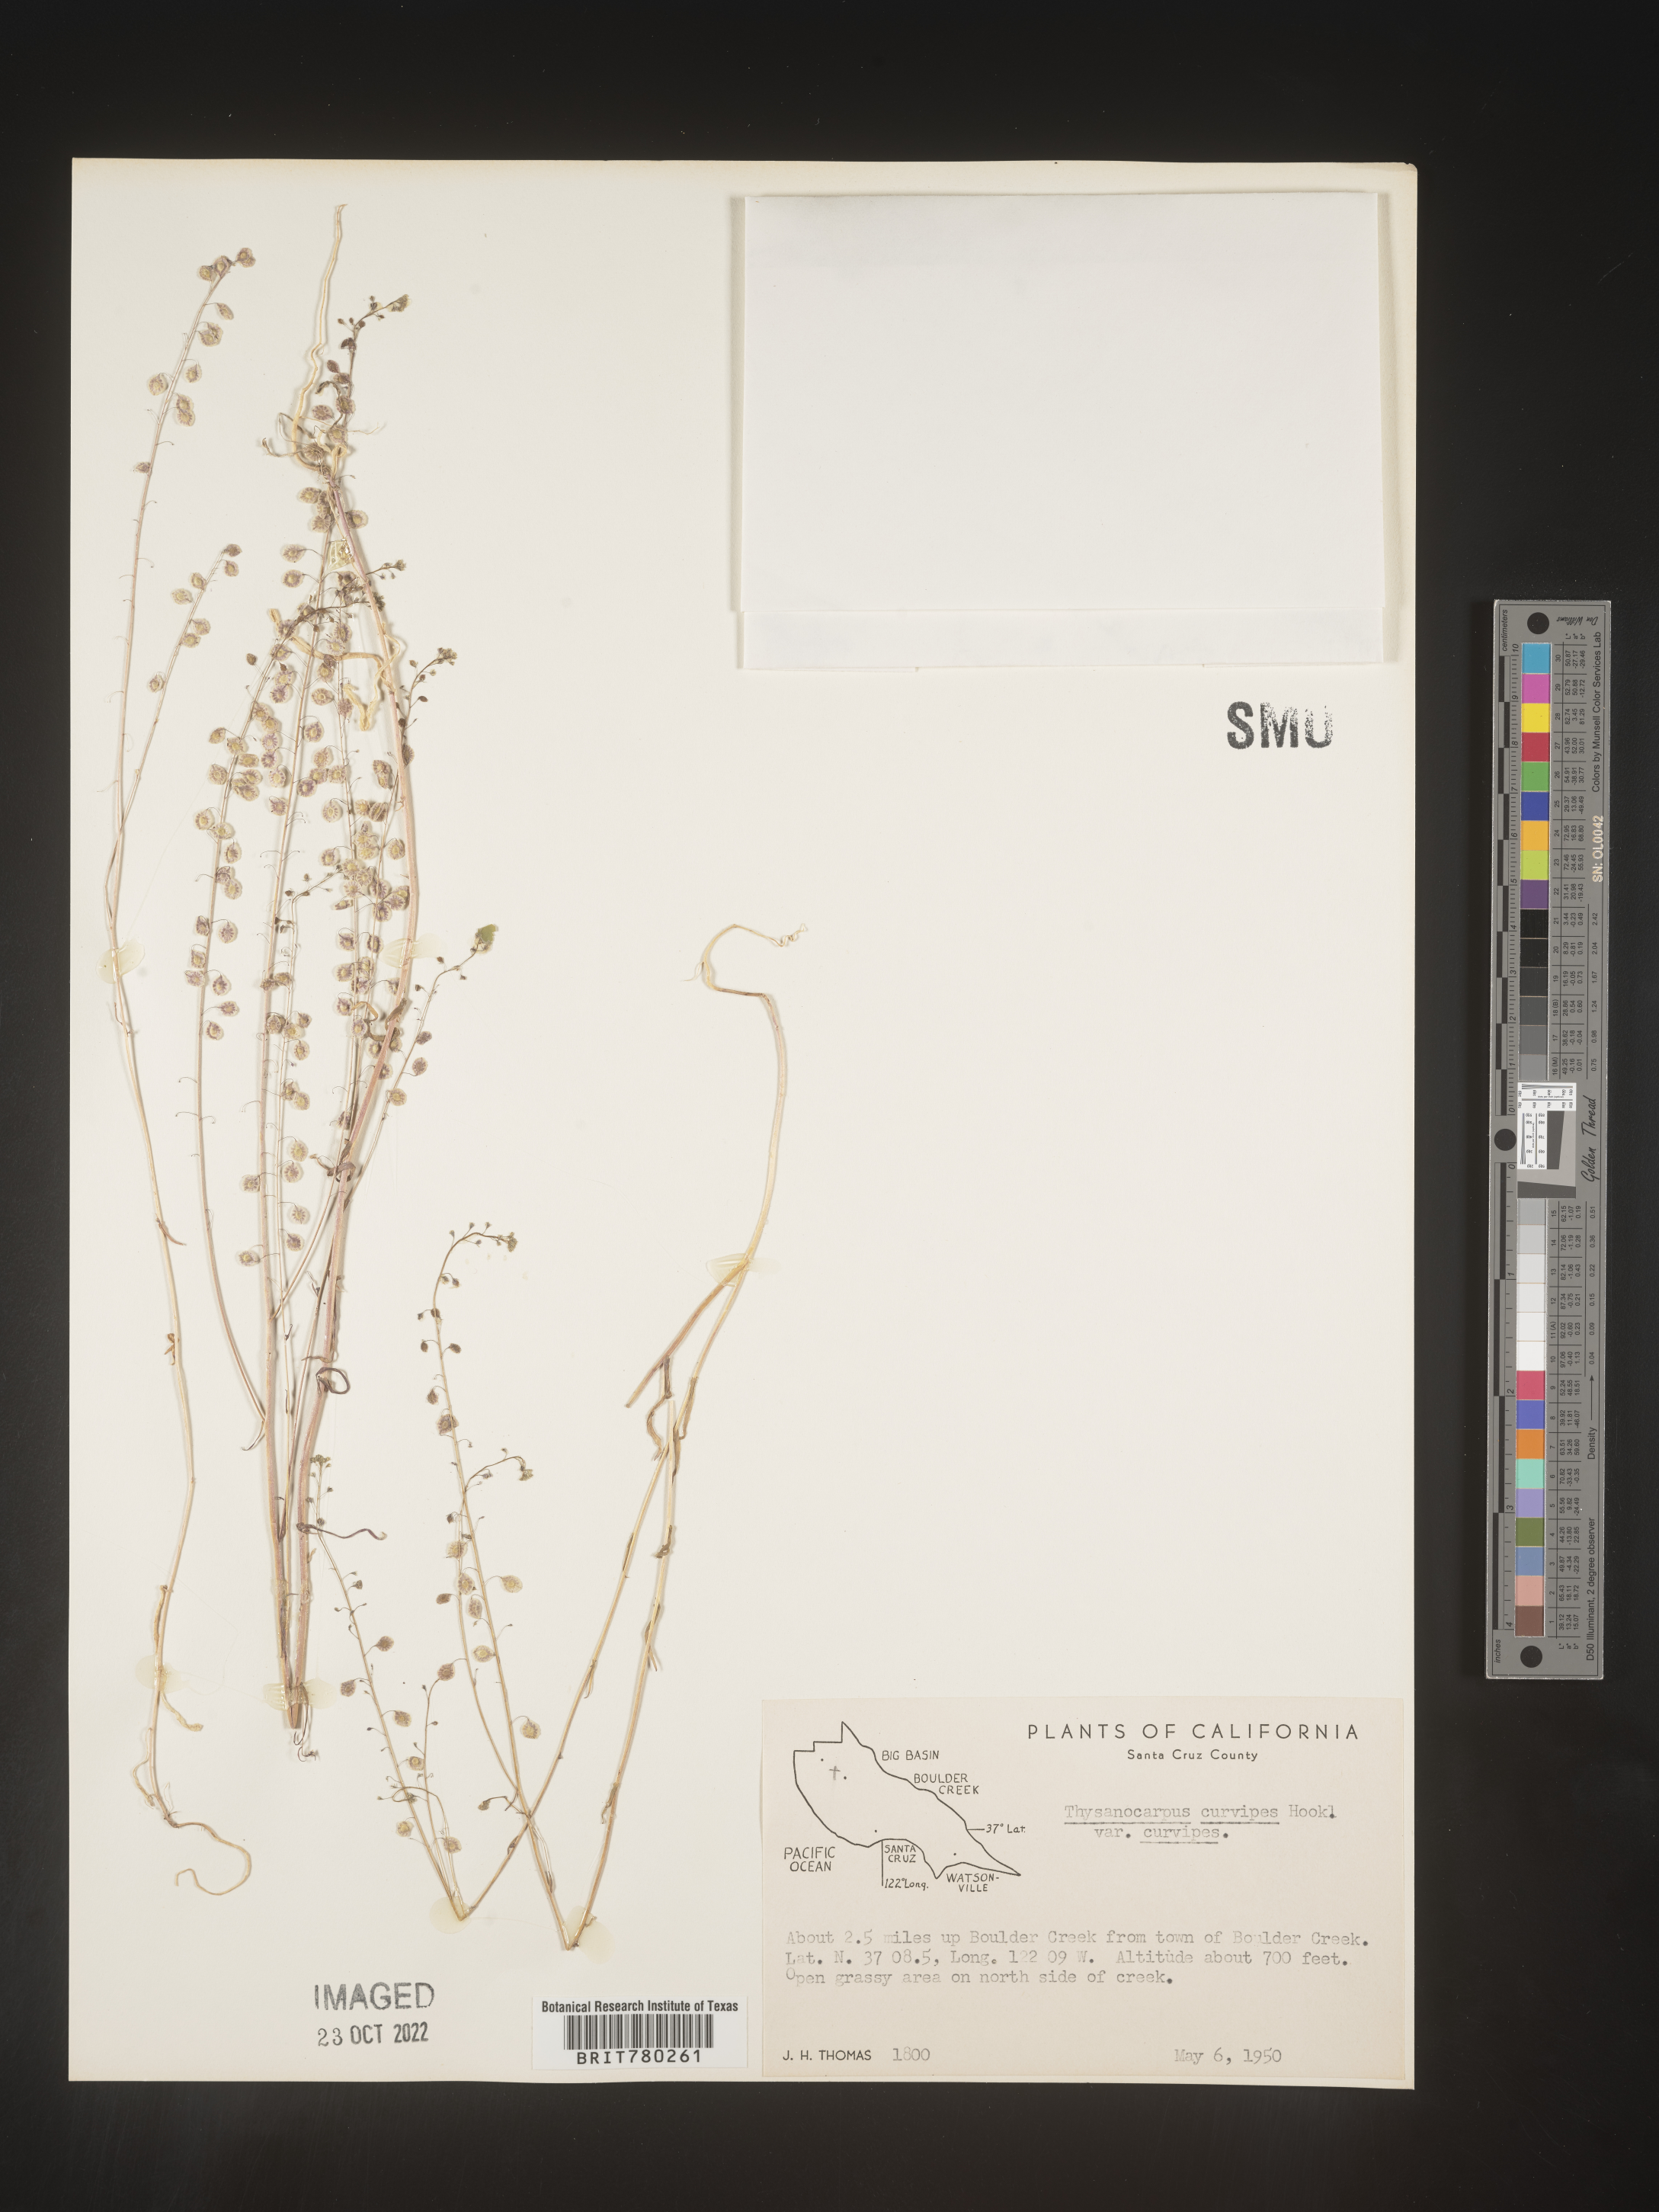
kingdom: Plantae
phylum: Tracheophyta
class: Magnoliopsida
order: Brassicales
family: Brassicaceae
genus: Thysanocarpus
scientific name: Thysanocarpus
